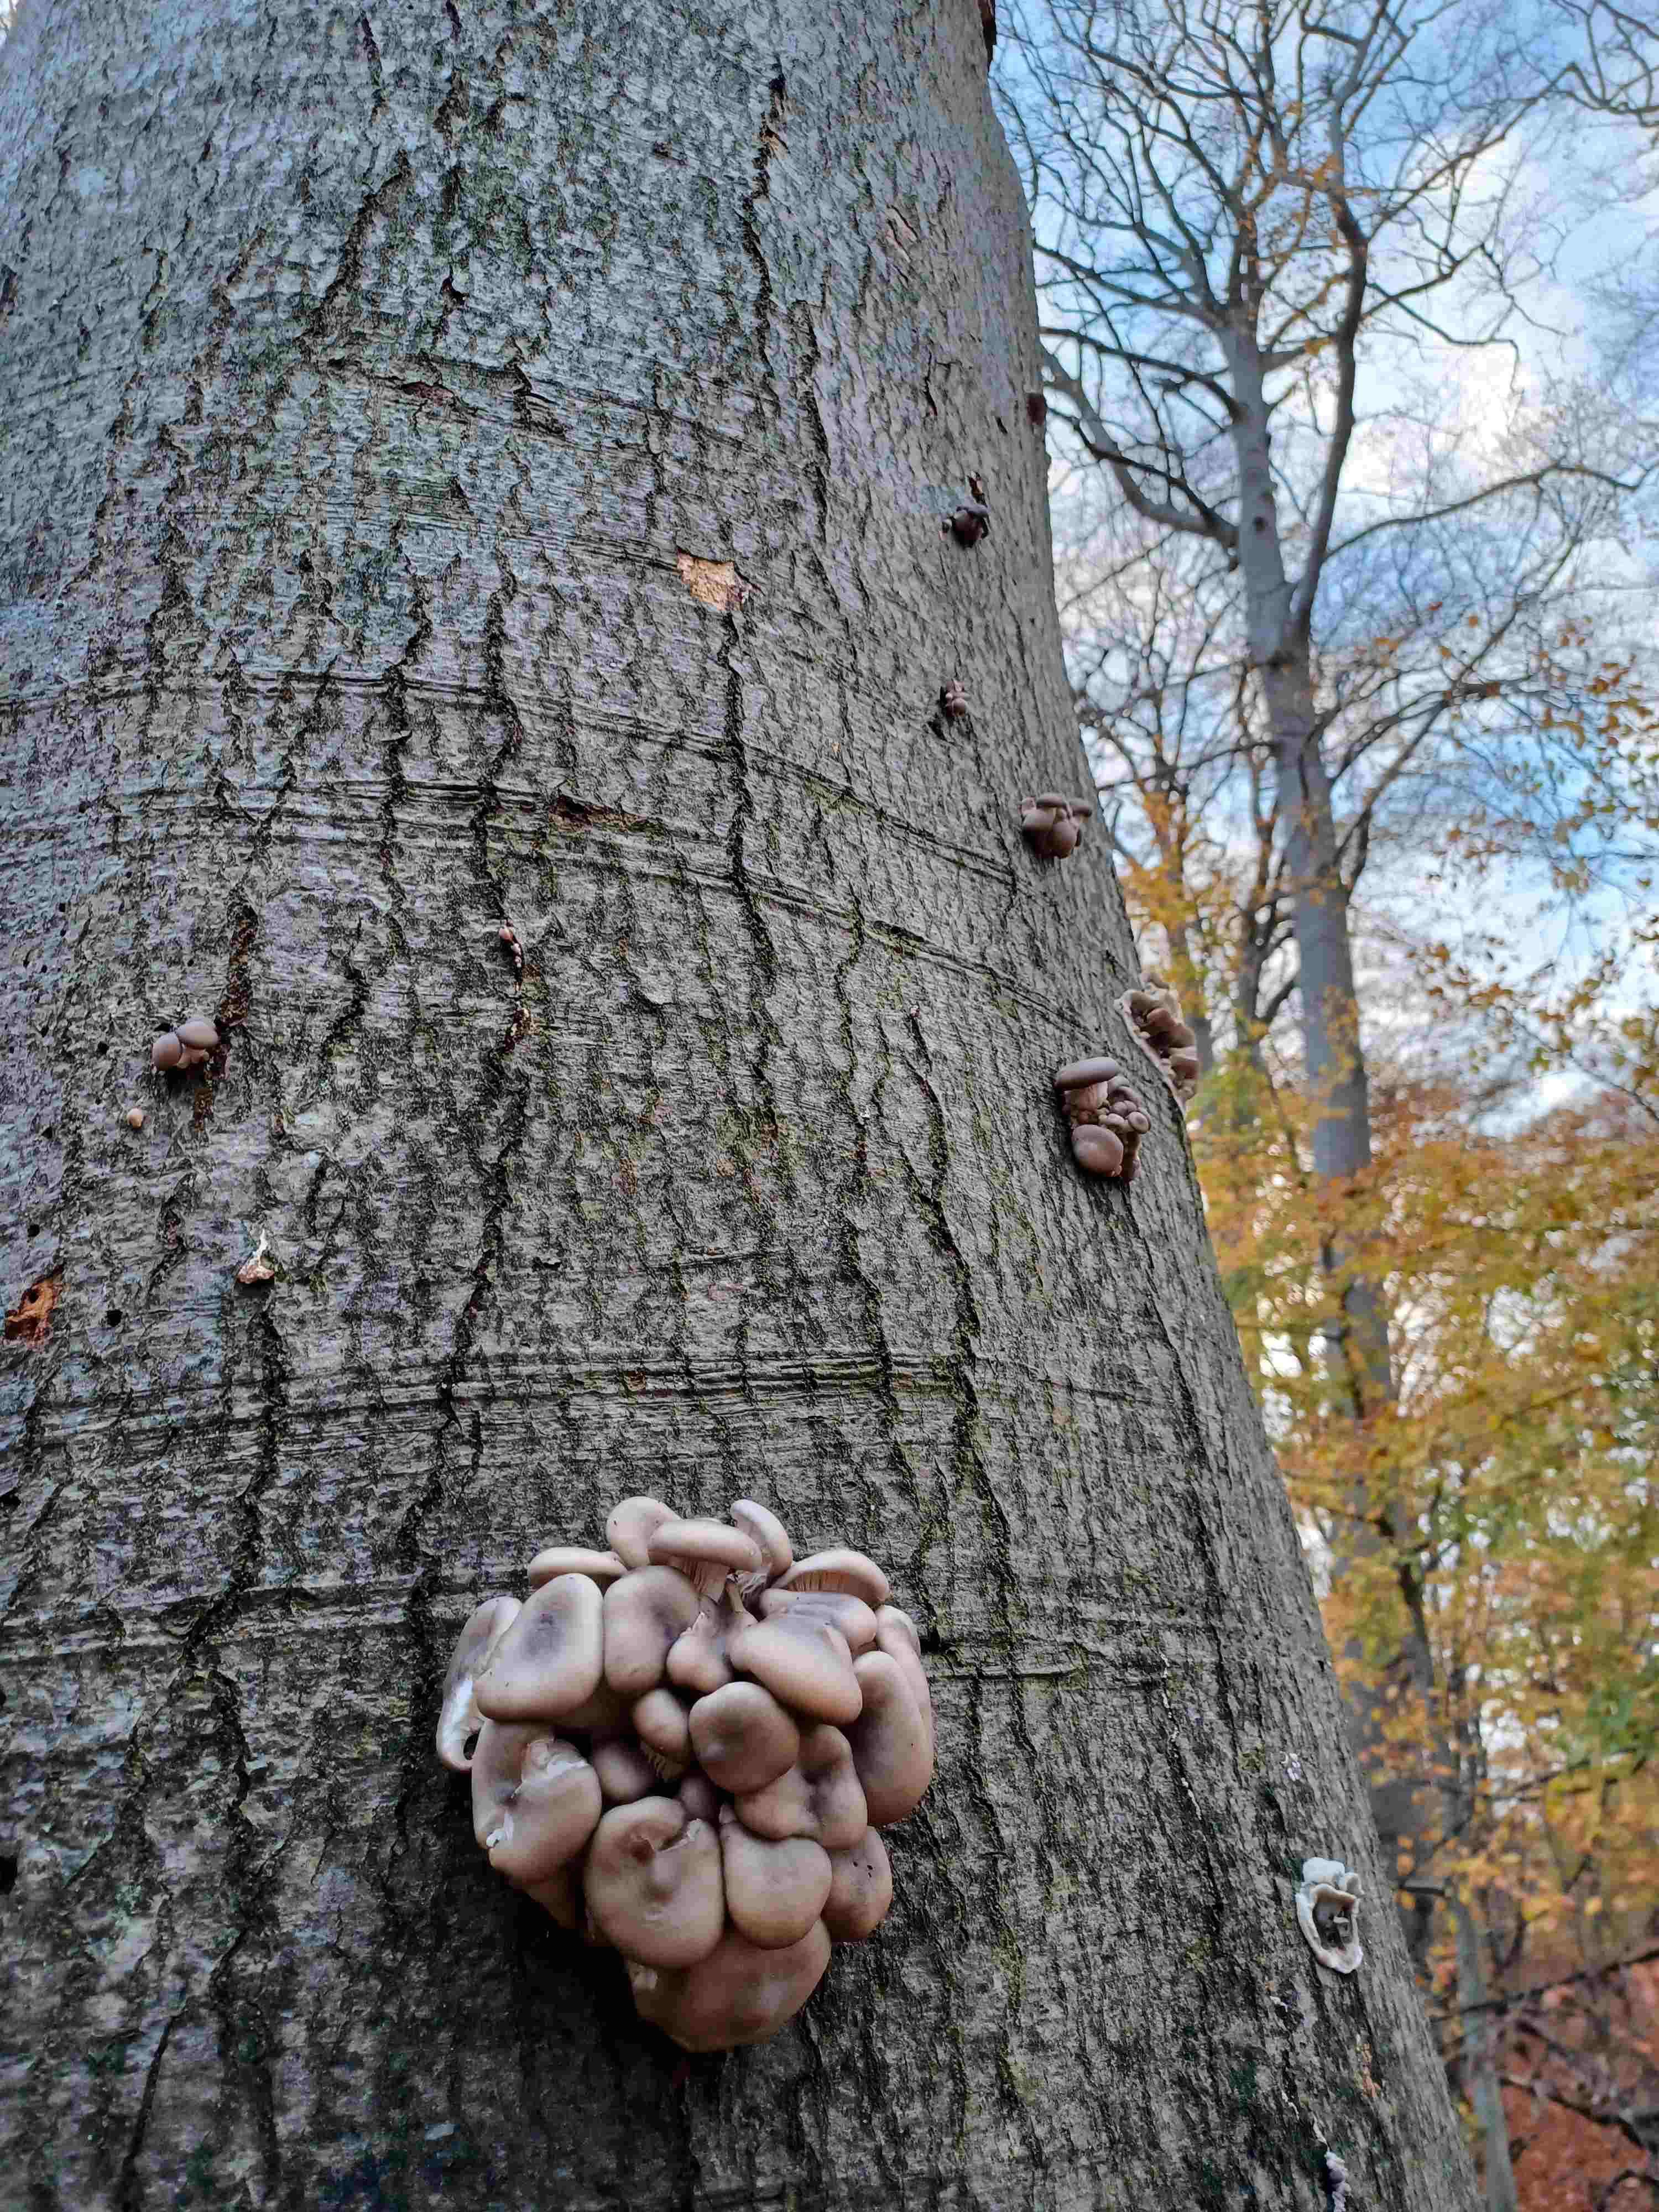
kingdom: Fungi
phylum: Basidiomycota
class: Agaricomycetes
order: Agaricales
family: Pleurotaceae
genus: Pleurotus
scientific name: Pleurotus ostreatus
